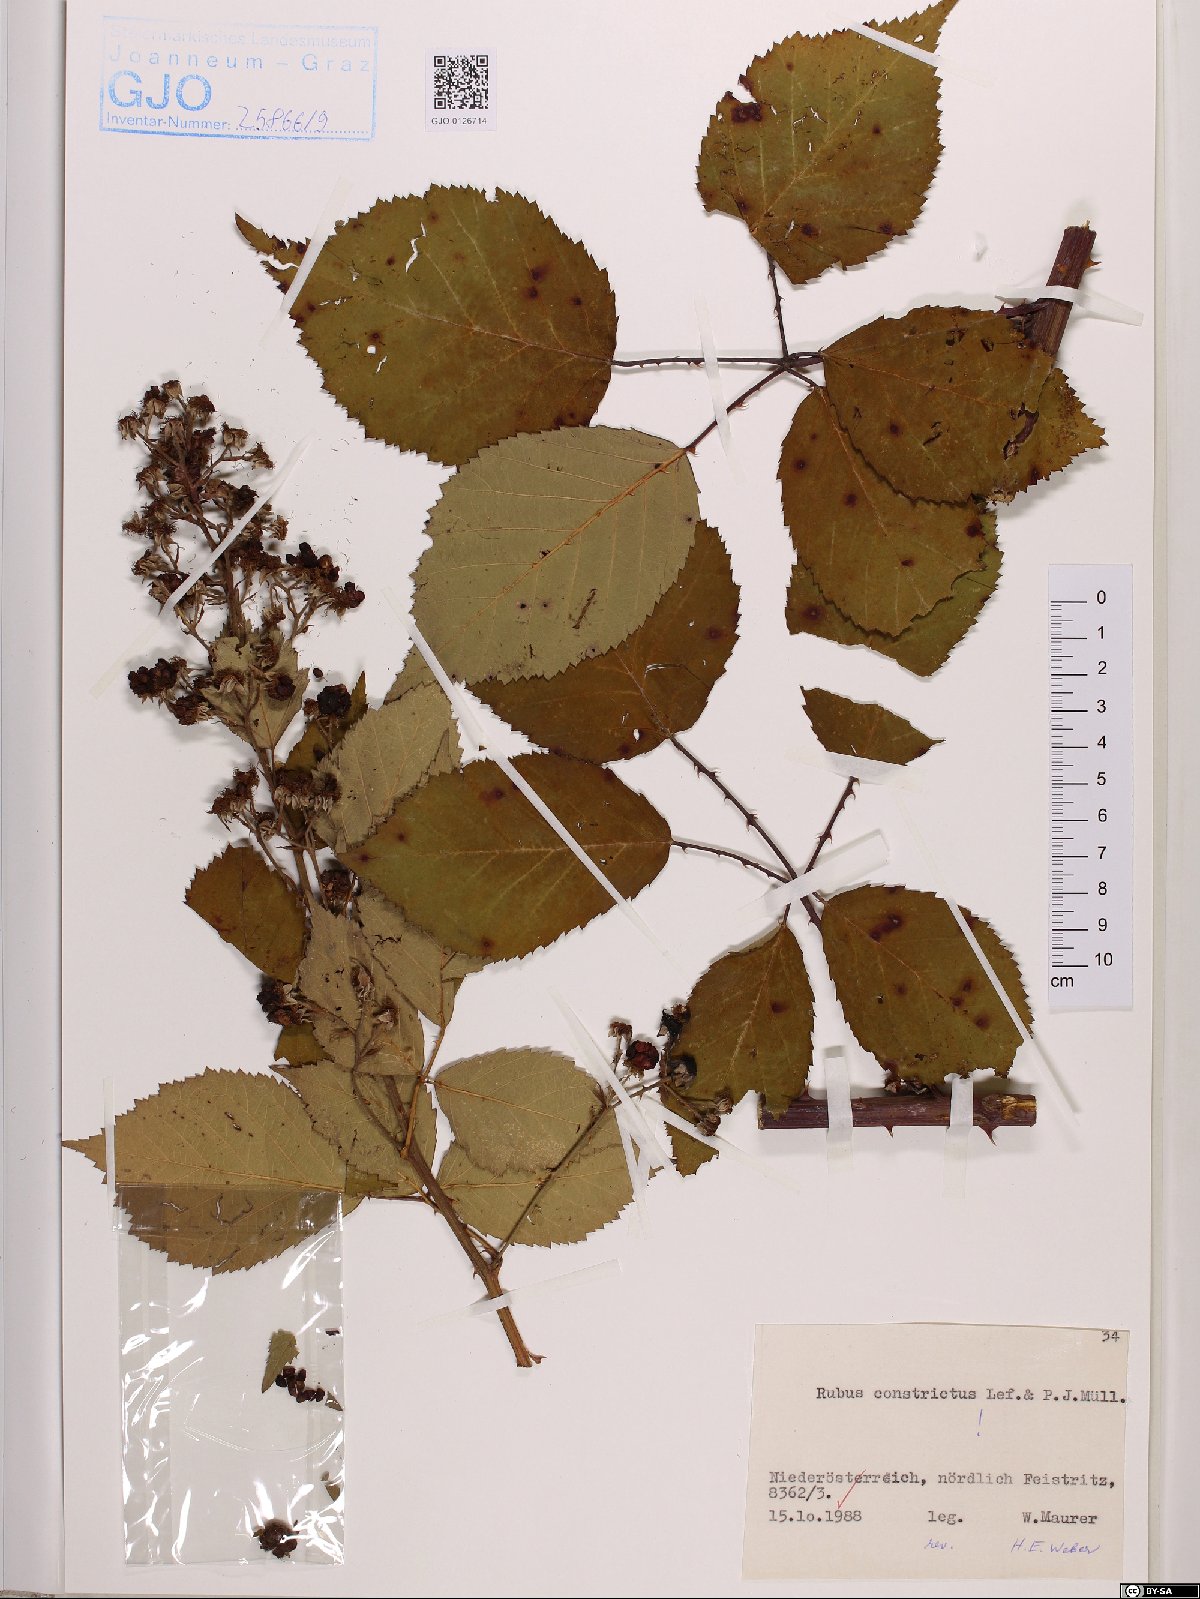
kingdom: Plantae
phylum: Tracheophyta
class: Magnoliopsida
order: Rosales
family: Rosaceae
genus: Rubus
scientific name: Rubus constrictus
